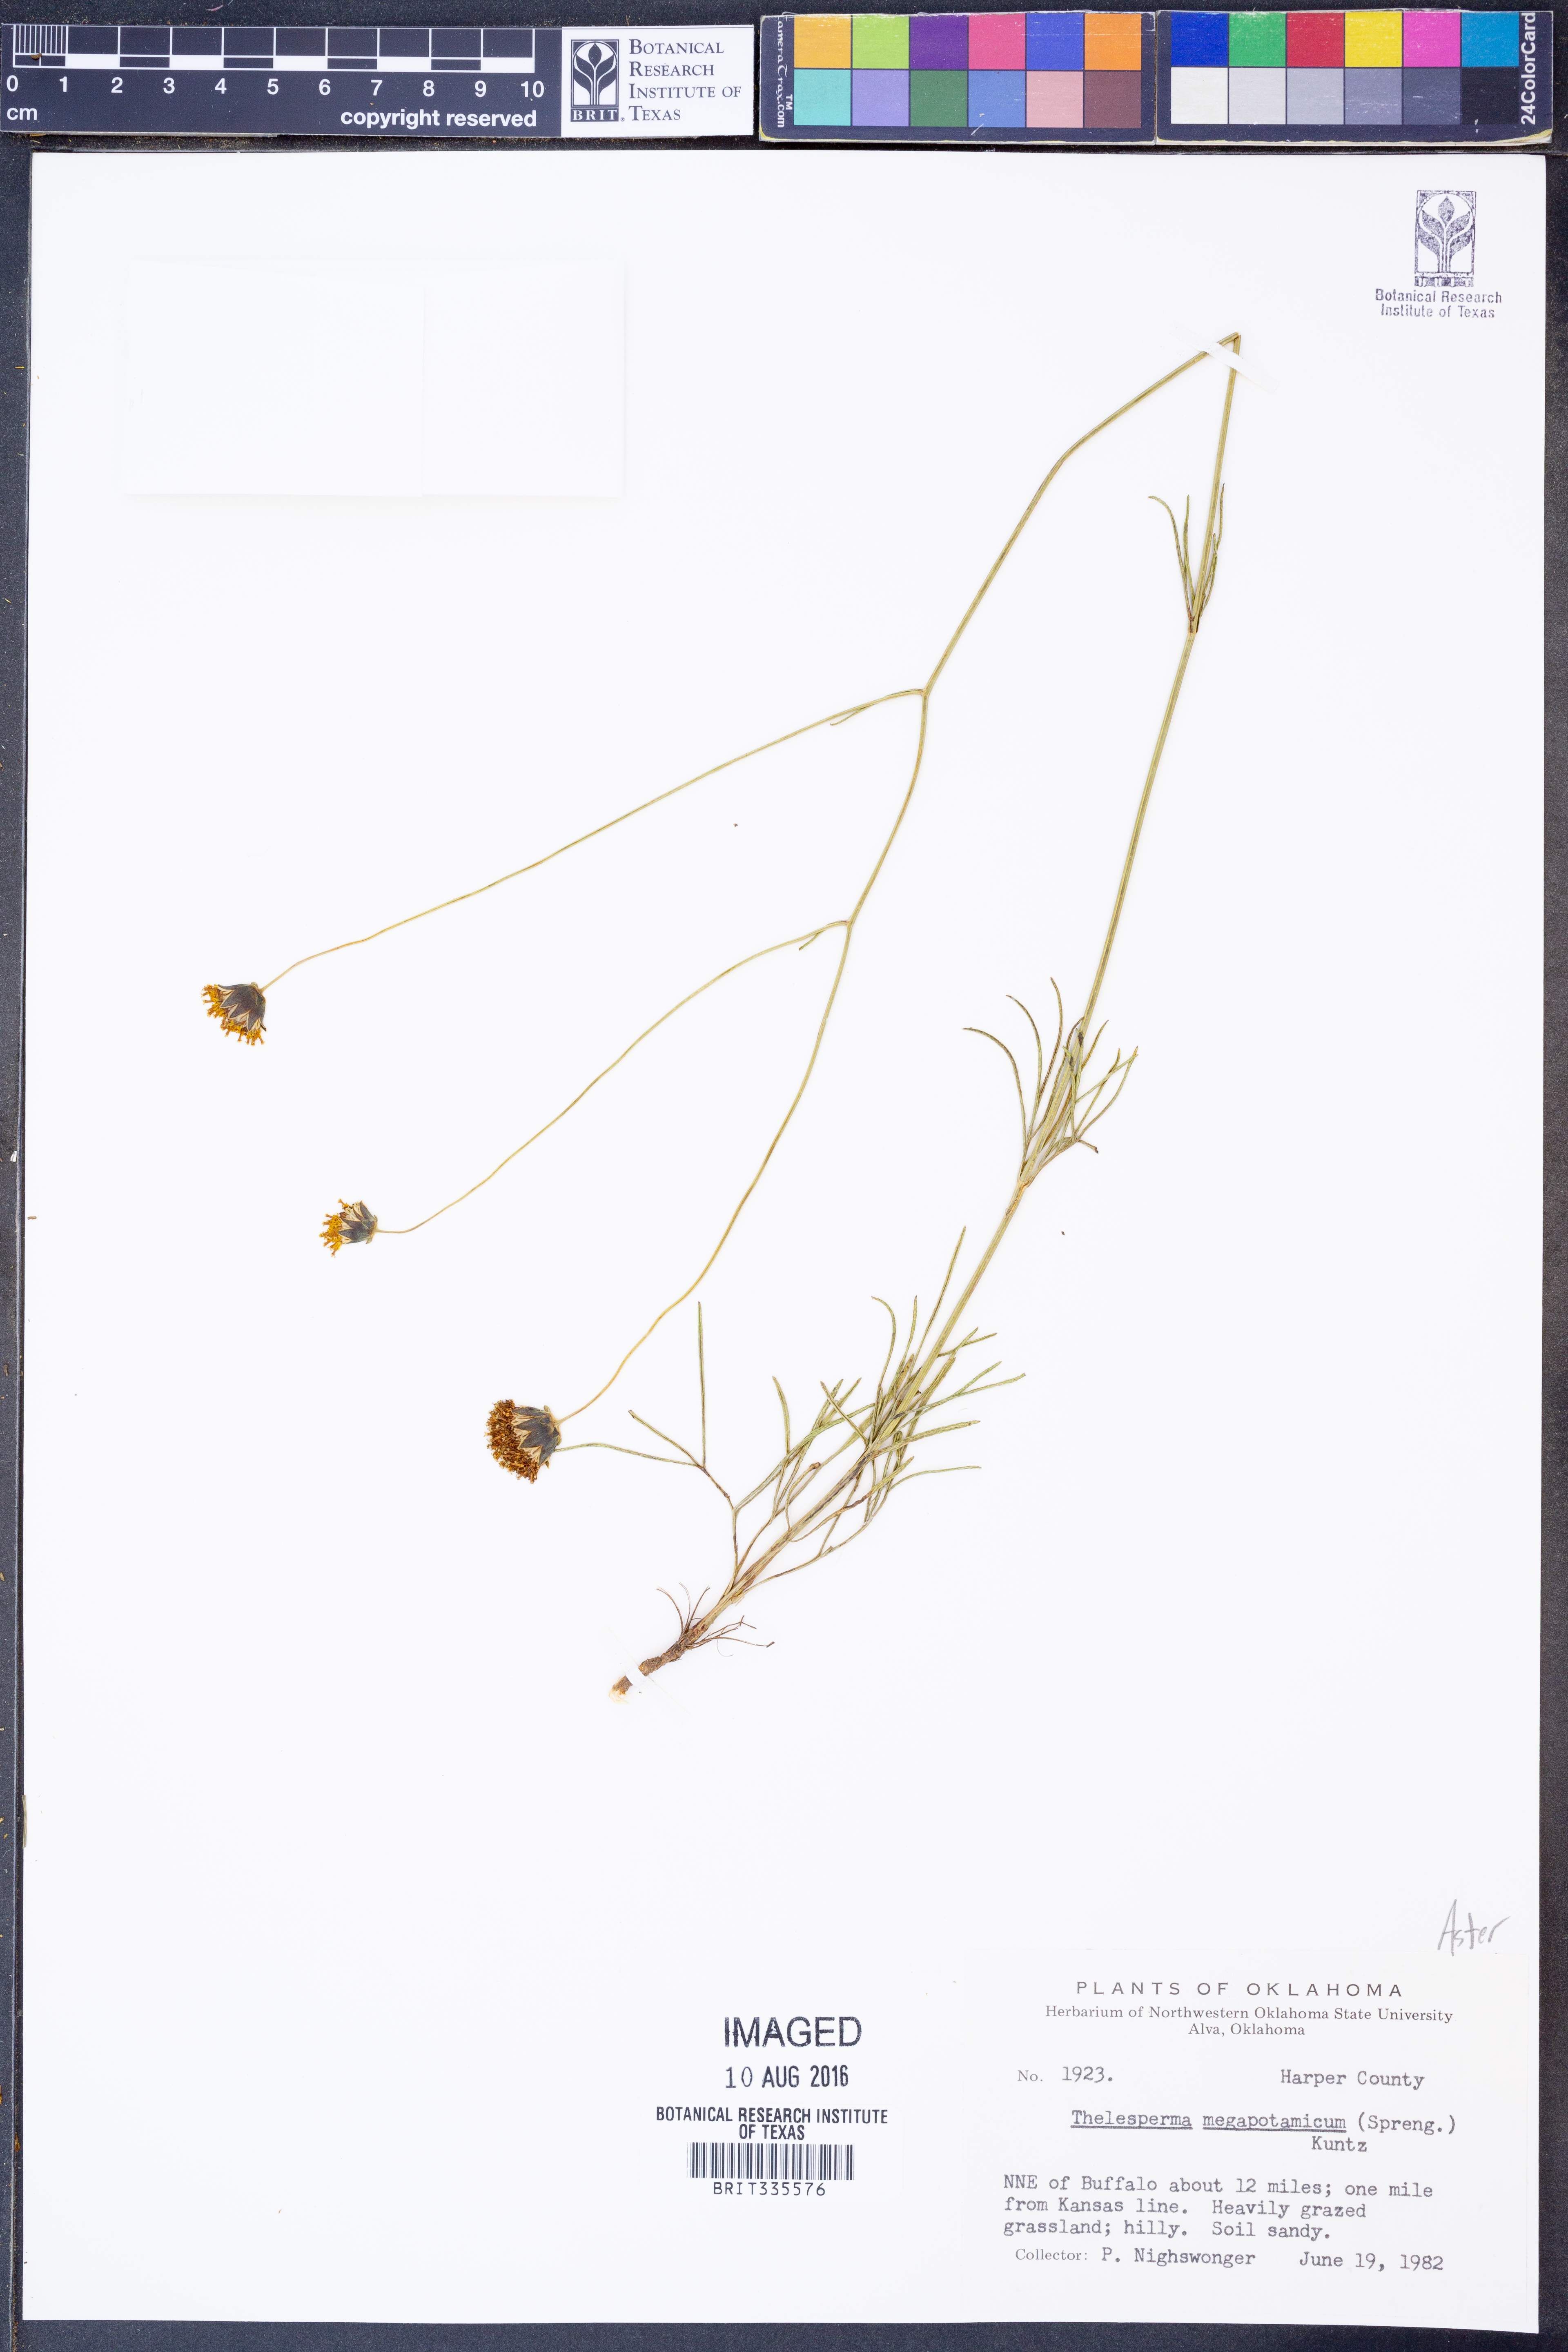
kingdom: Plantae
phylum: Tracheophyta
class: Magnoliopsida
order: Asterales
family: Asteraceae
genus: Thelesperma
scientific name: Thelesperma megapotamicum
